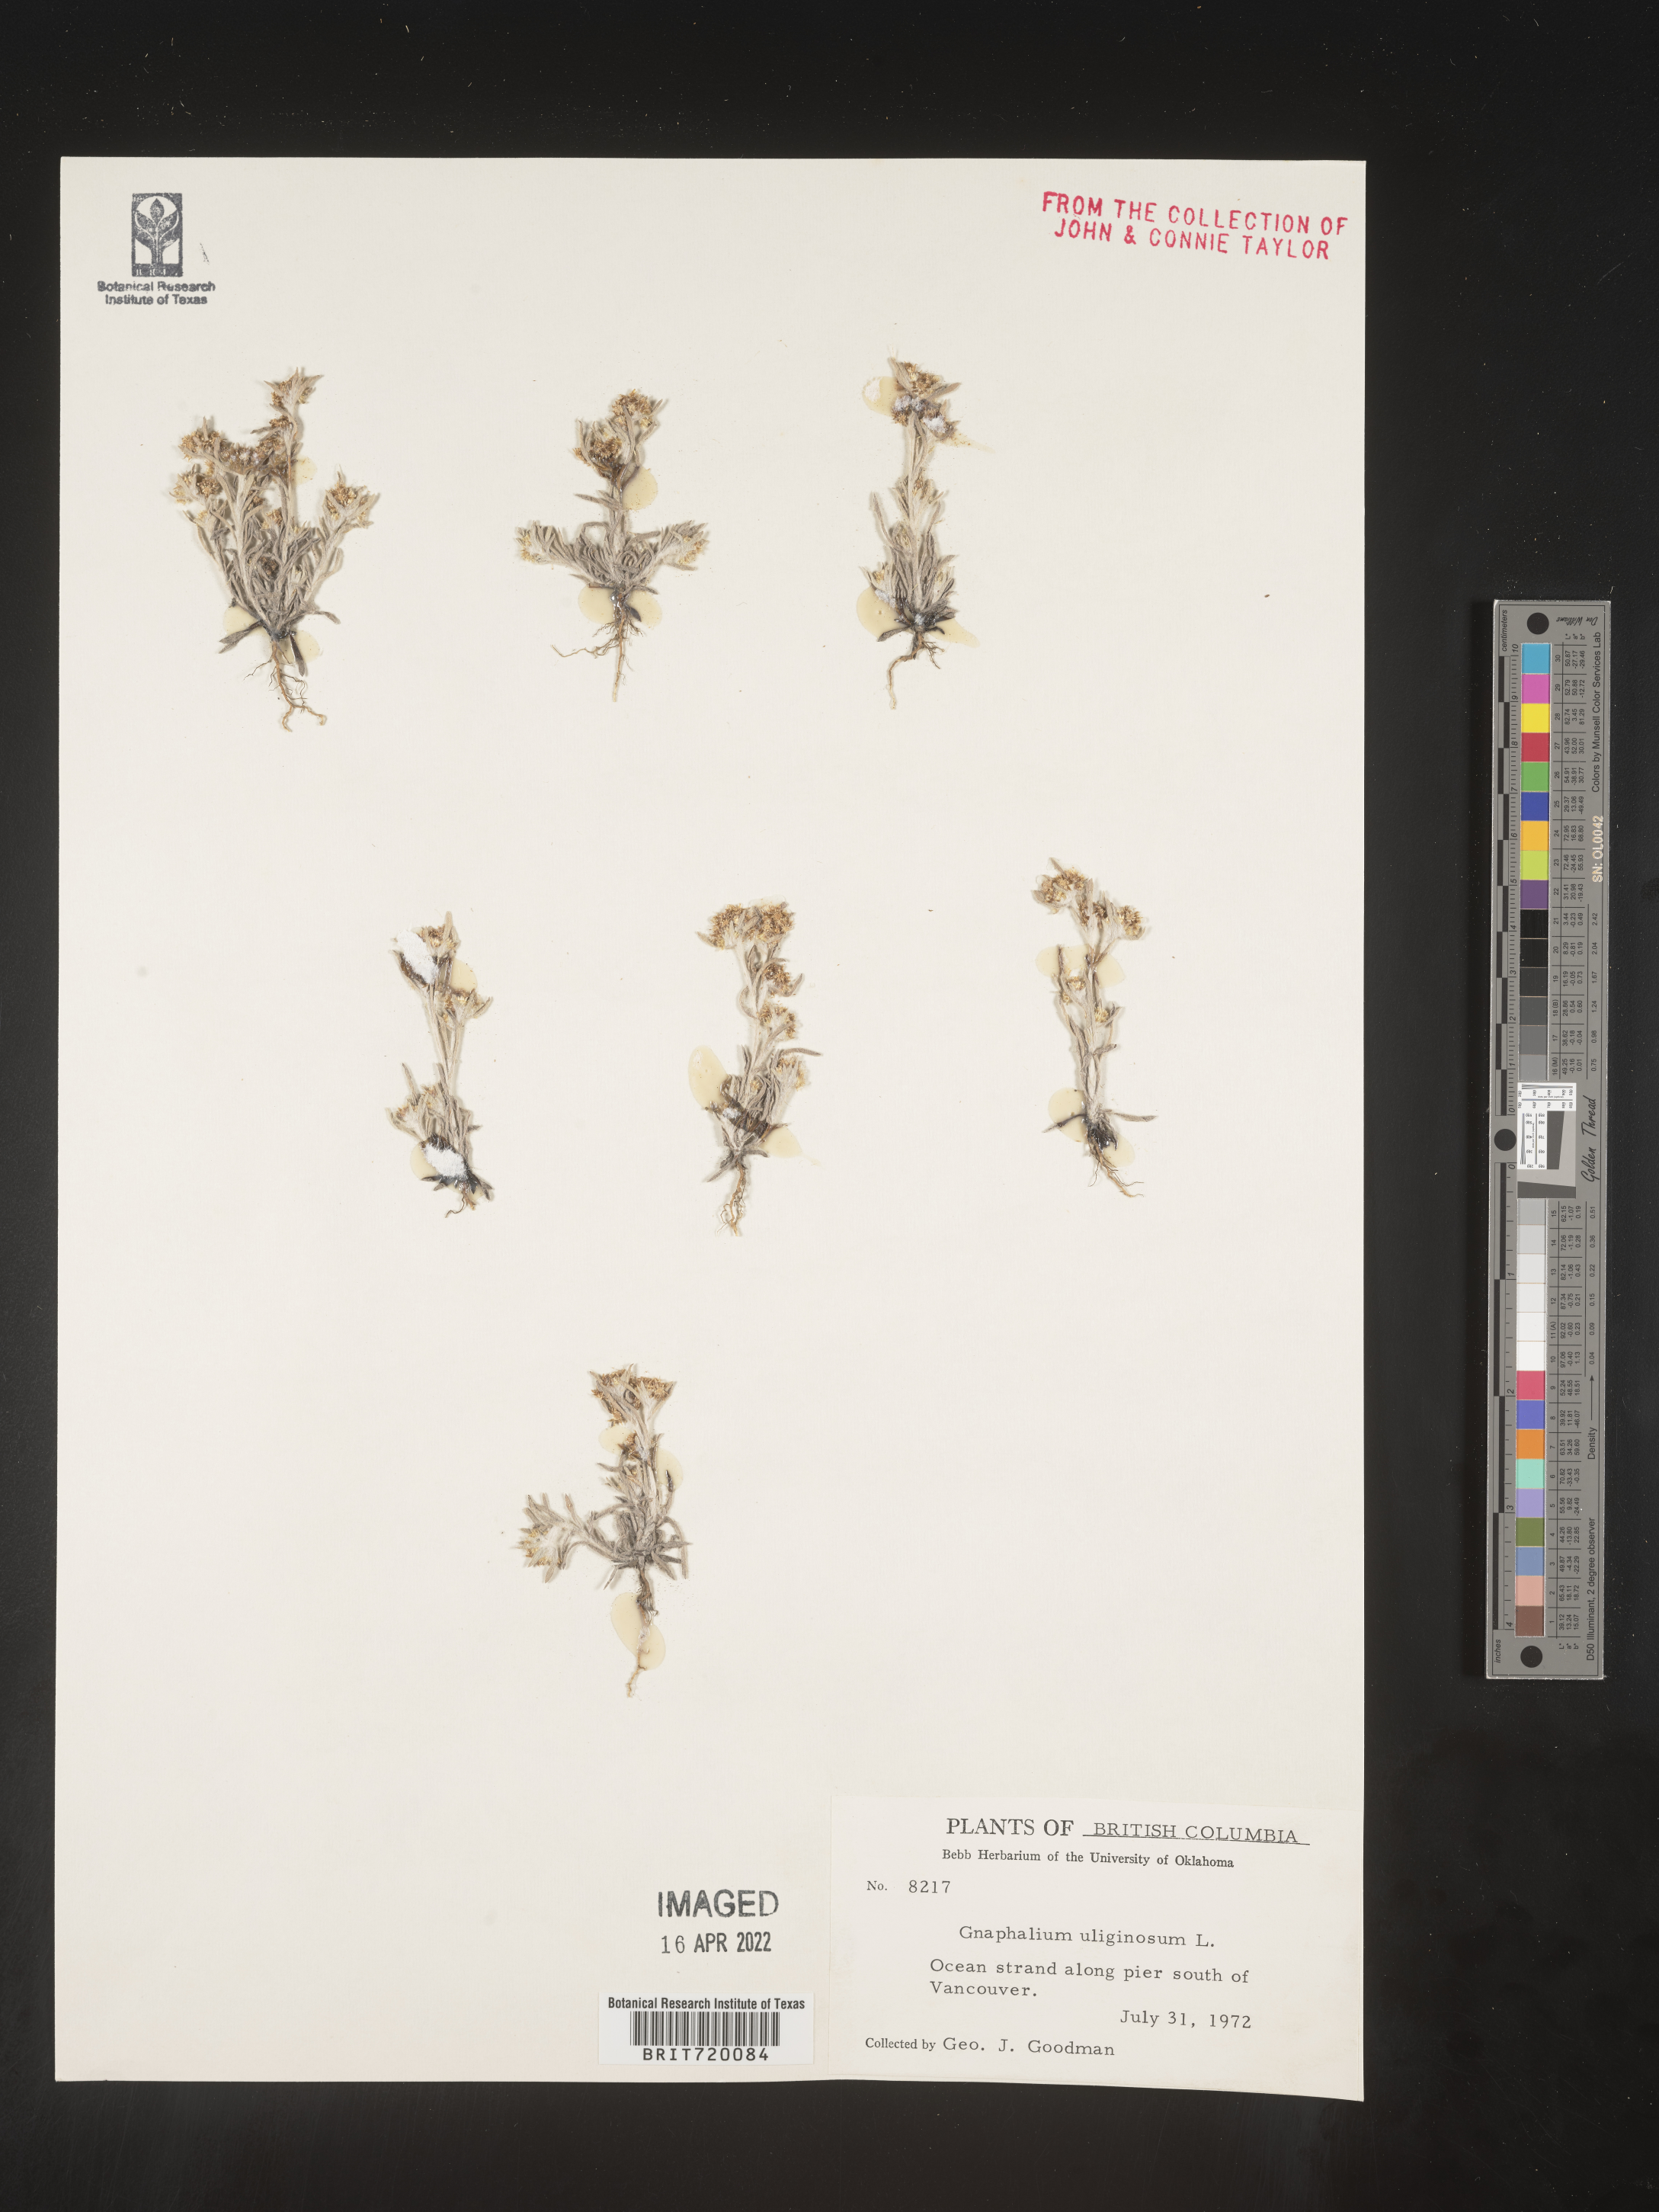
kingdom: Plantae
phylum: Tracheophyta
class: Magnoliopsida
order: Asterales
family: Asteraceae
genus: Gnaphalium
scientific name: Gnaphalium uliginosum
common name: Marsh cudweed
